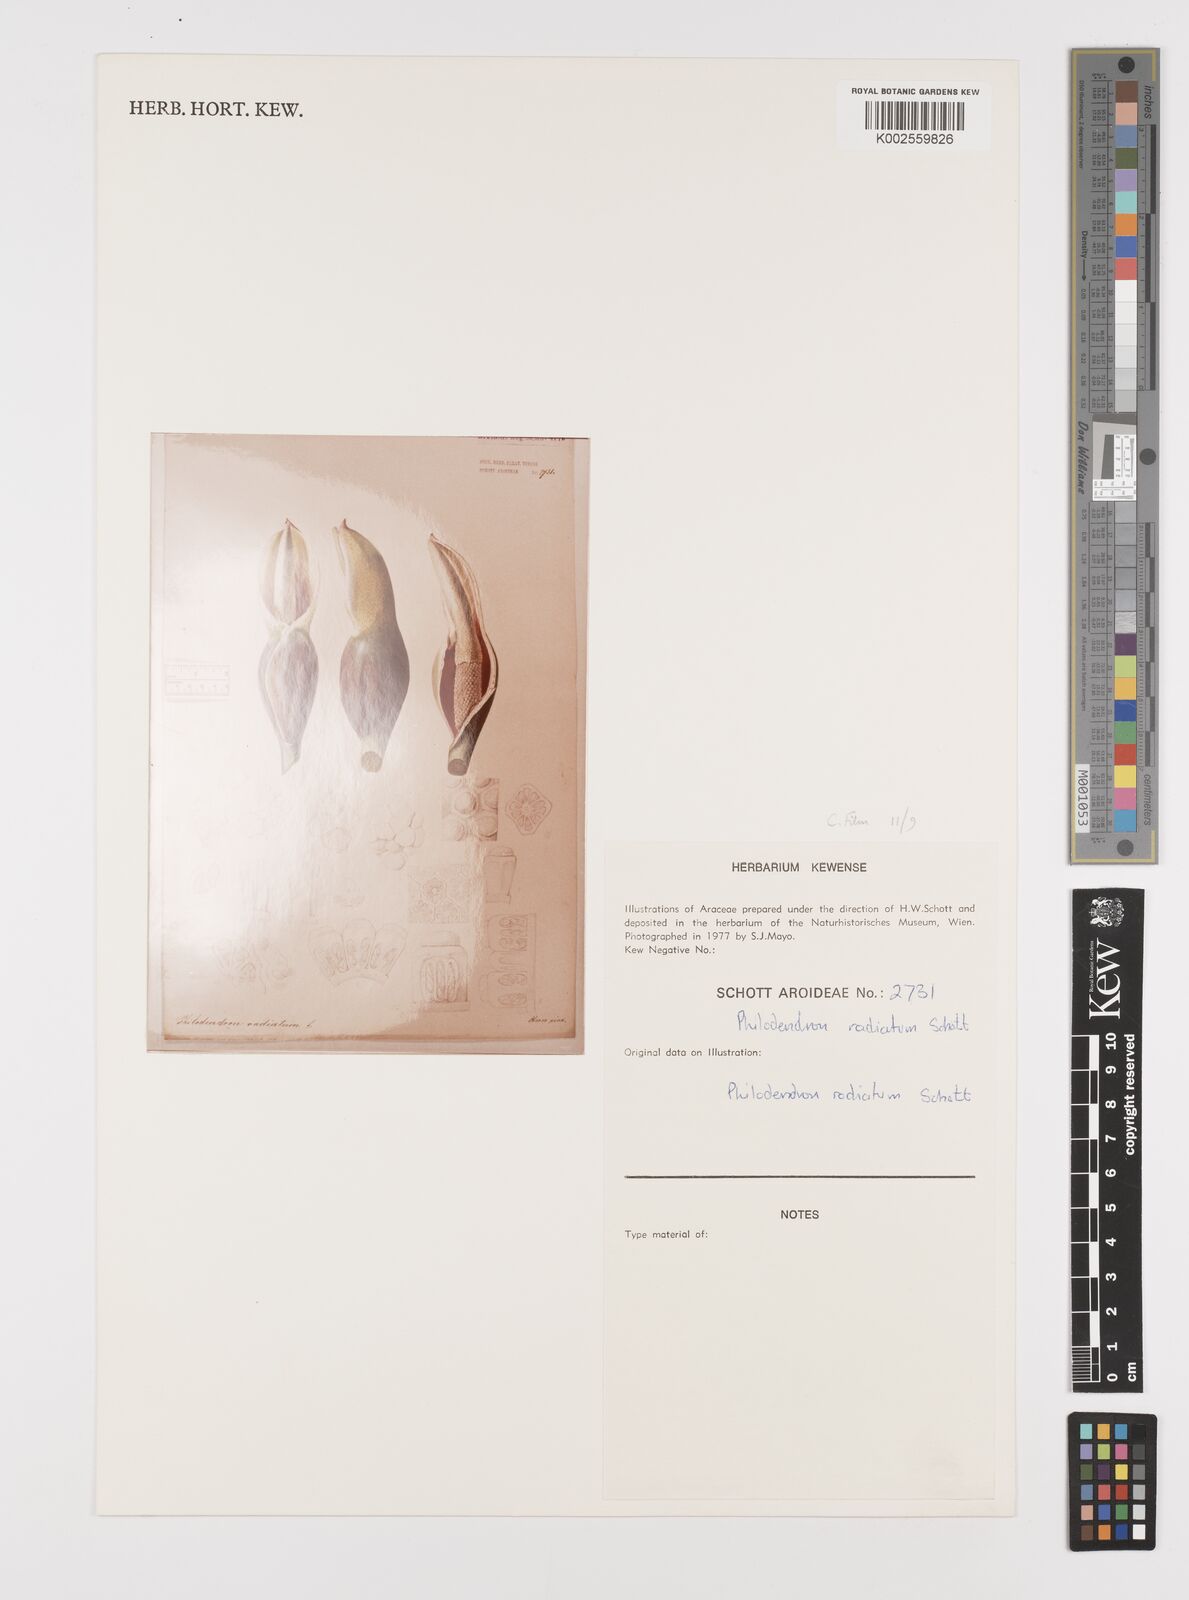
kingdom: Plantae
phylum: Tracheophyta
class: Liliopsida
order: Alismatales
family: Araceae
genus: Philodendron
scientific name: Philodendron radiatum
